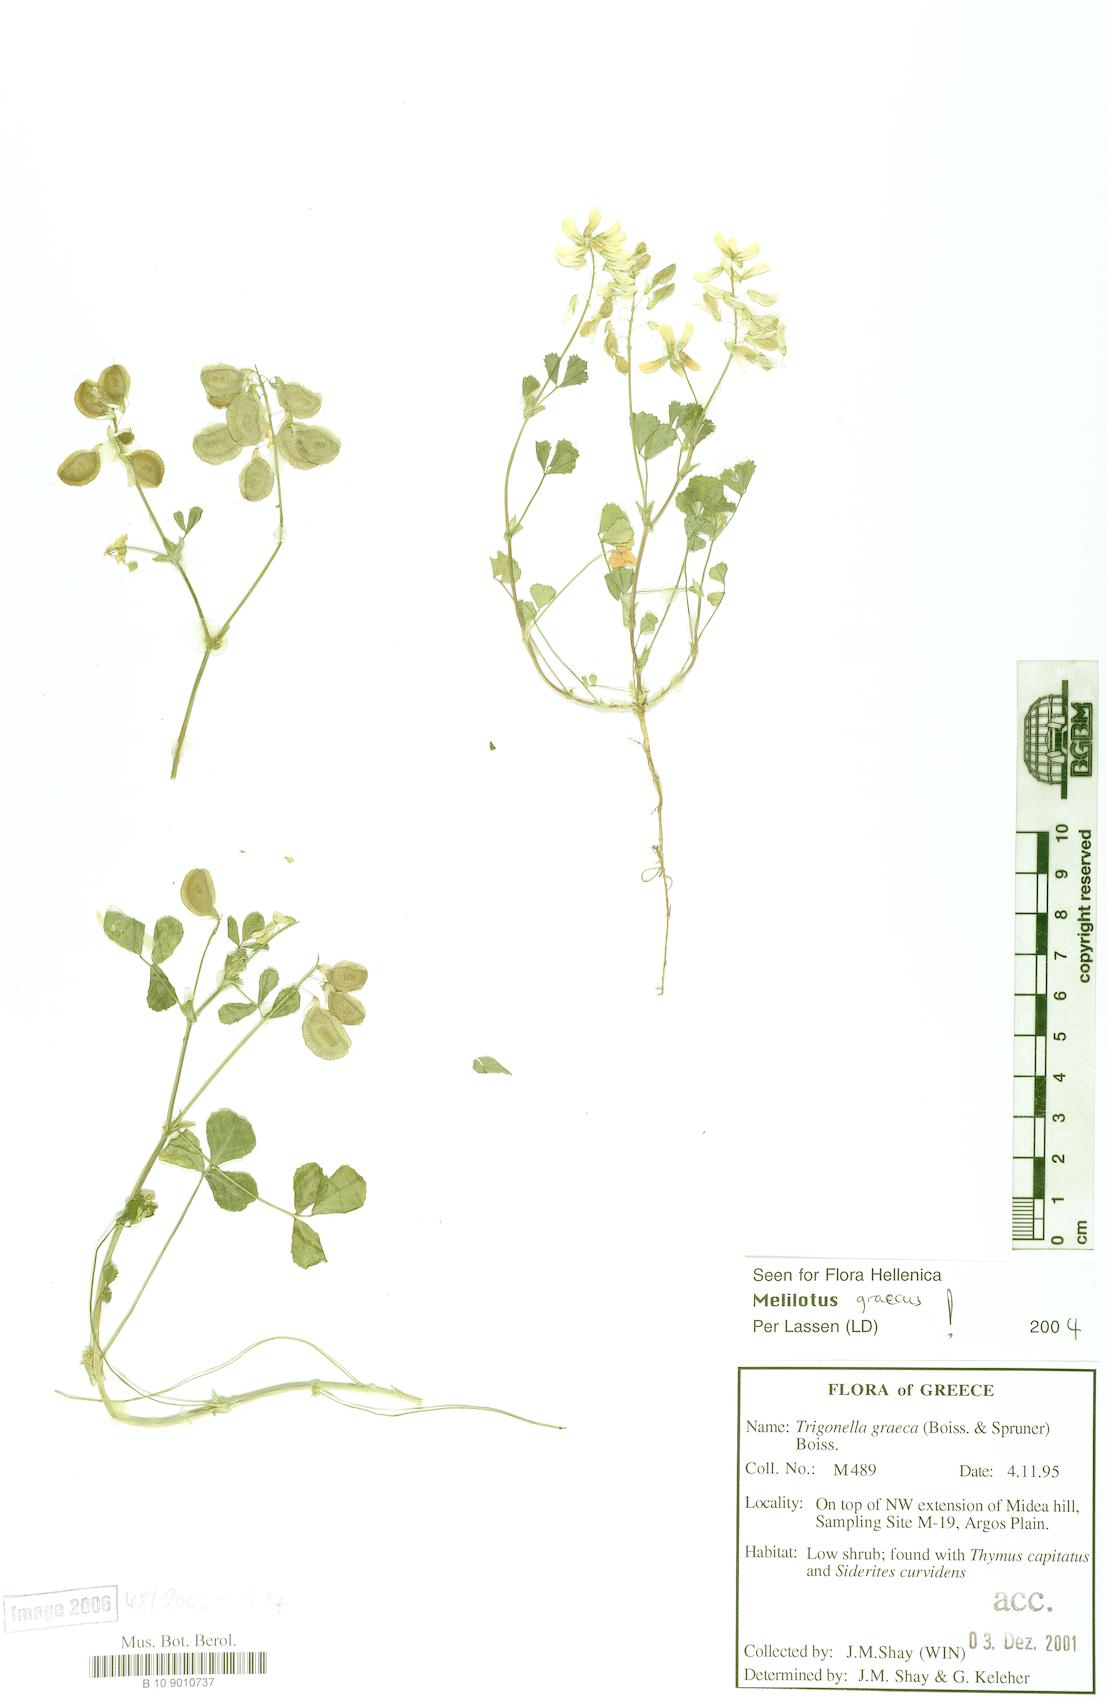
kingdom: Plantae
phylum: Tracheophyta
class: Magnoliopsida
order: Fabales
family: Fabaceae
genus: Trigonella
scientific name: Trigonella graeca
